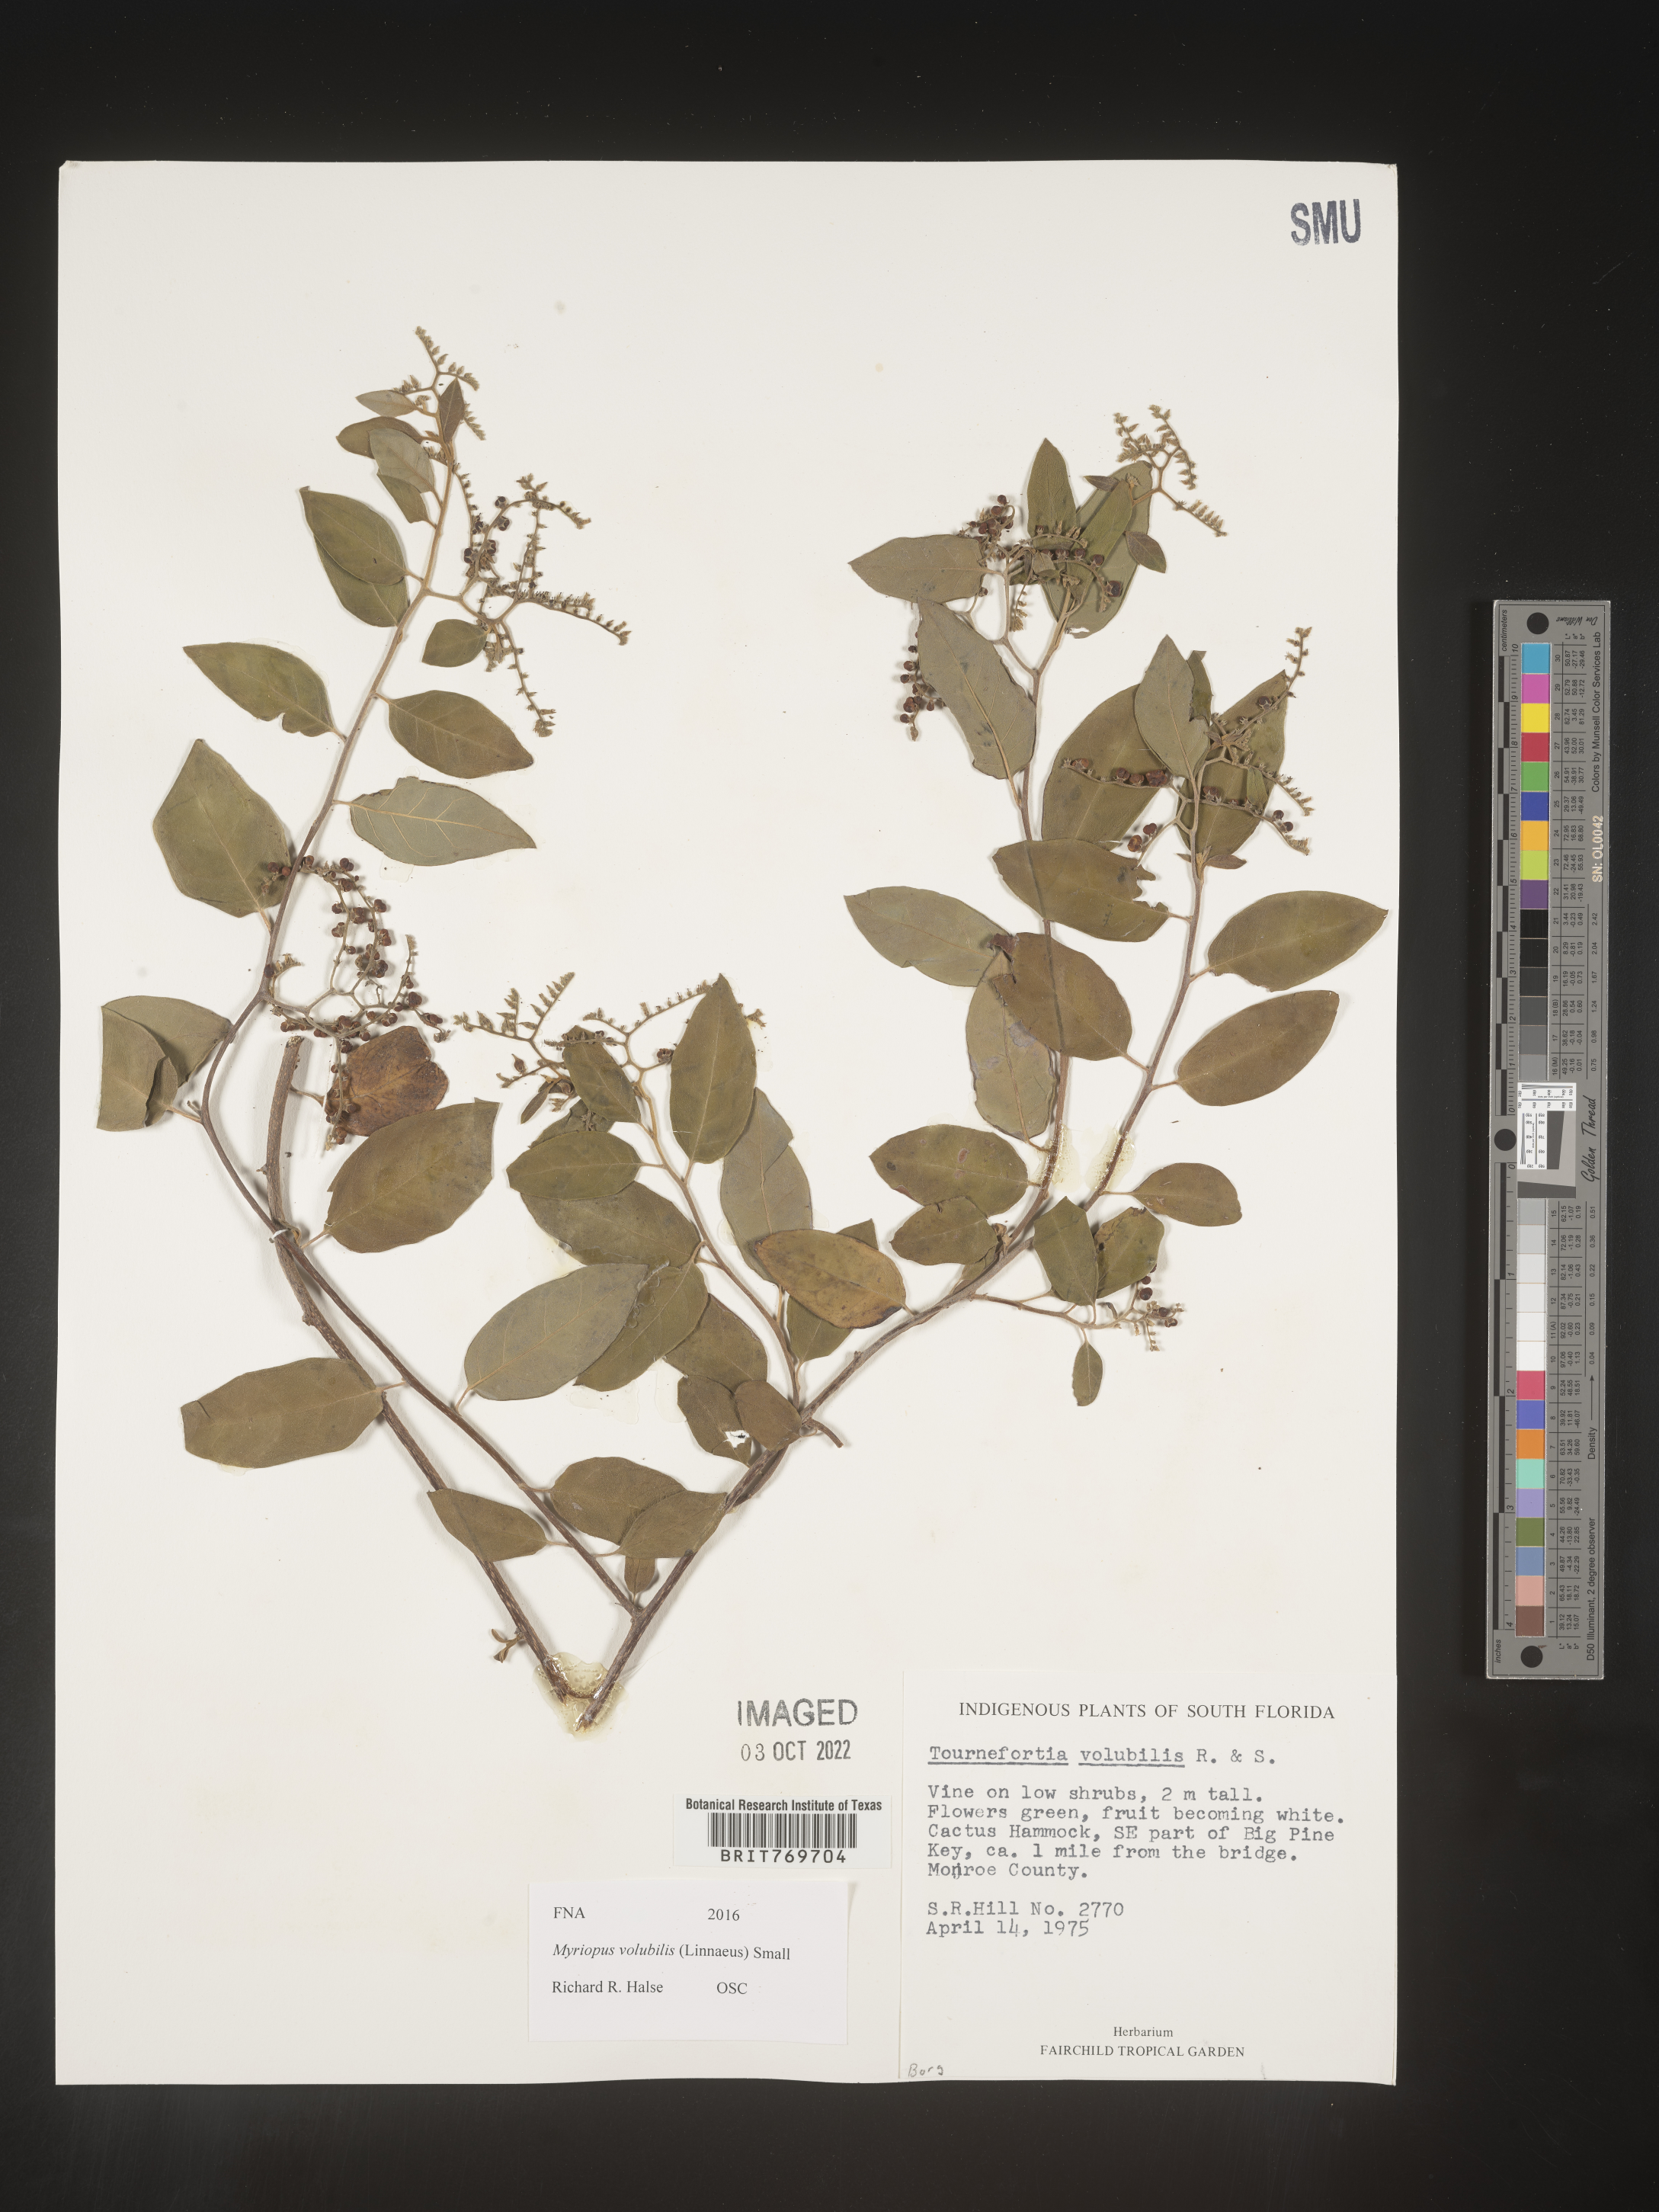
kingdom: Plantae
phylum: Tracheophyta
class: Magnoliopsida
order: Boraginales
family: Heliotropiaceae
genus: Myriopus
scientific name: Myriopus
